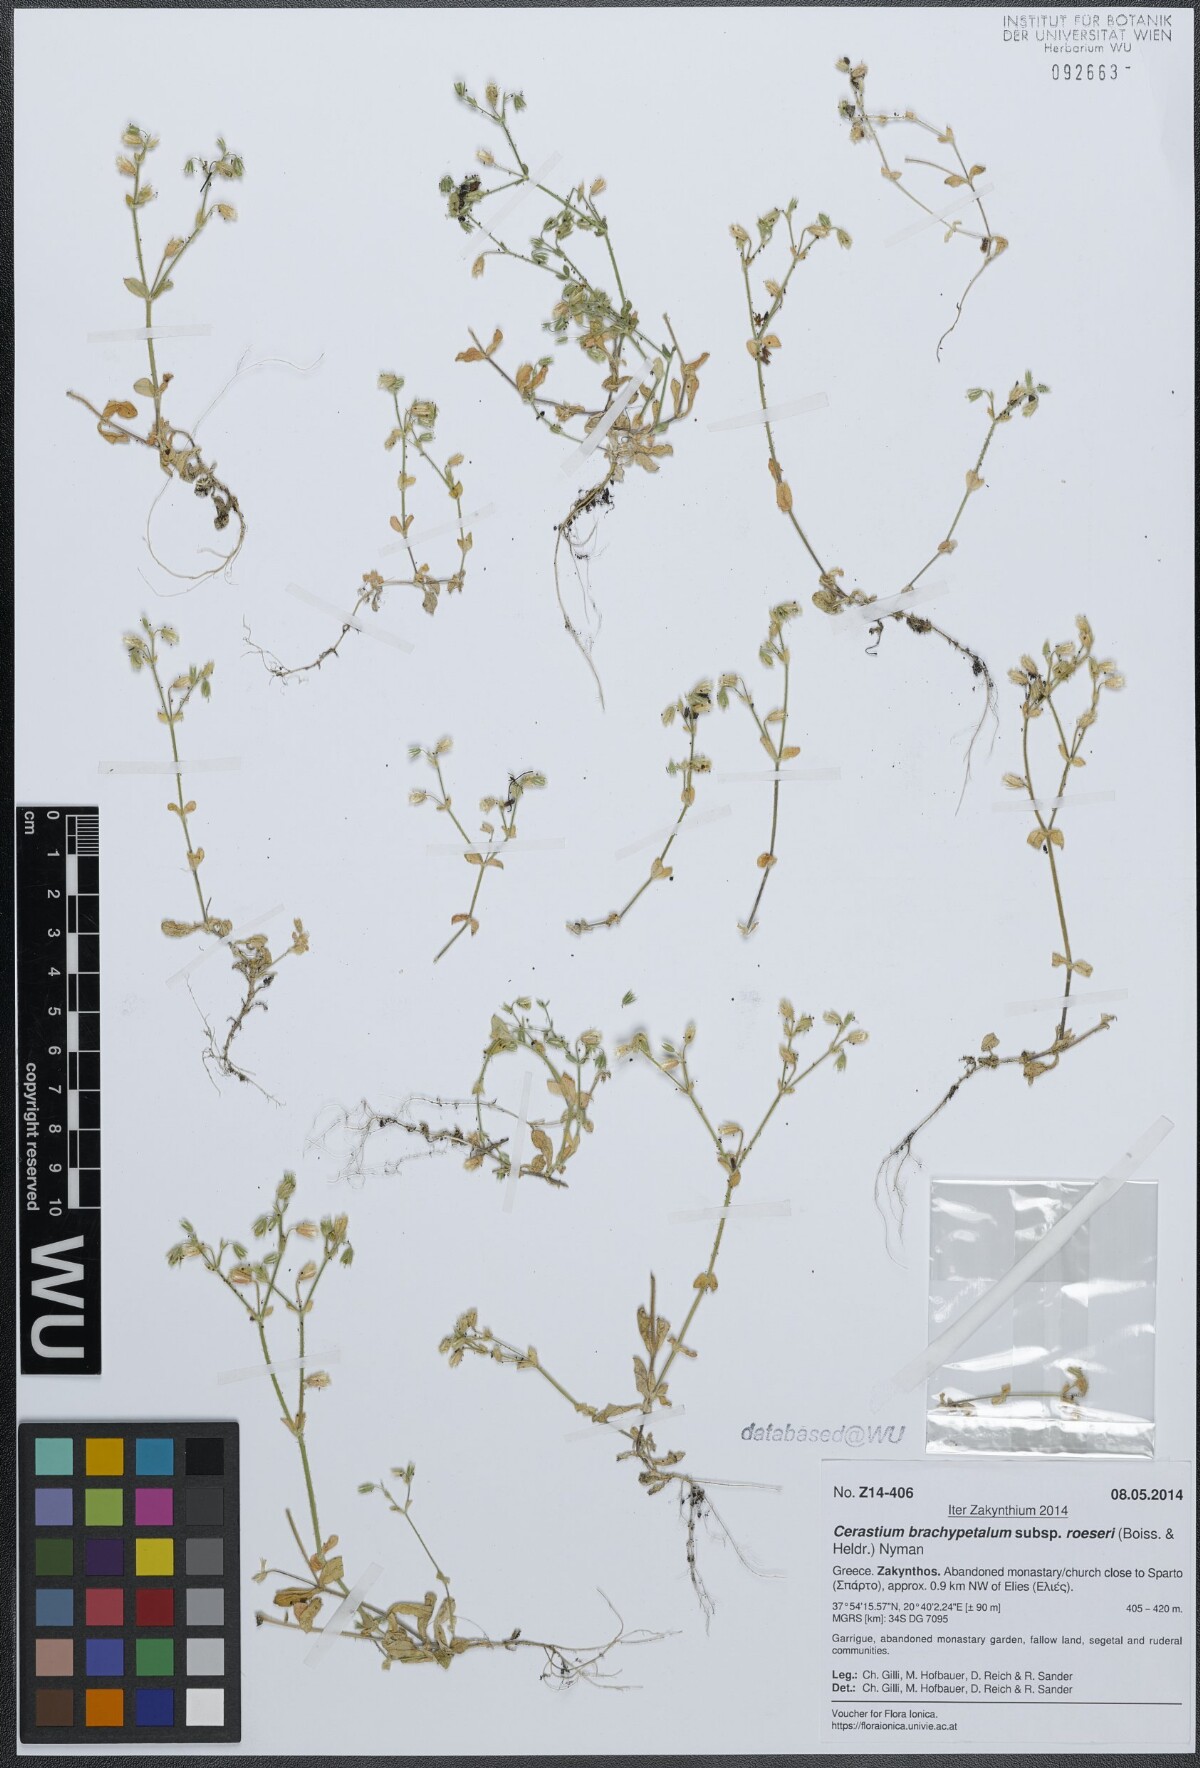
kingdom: Plantae
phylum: Tracheophyta
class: Magnoliopsida
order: Caryophyllales
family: Caryophyllaceae
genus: Cerastium
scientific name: Cerastium brachypetalum
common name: Grey mouse-ear
